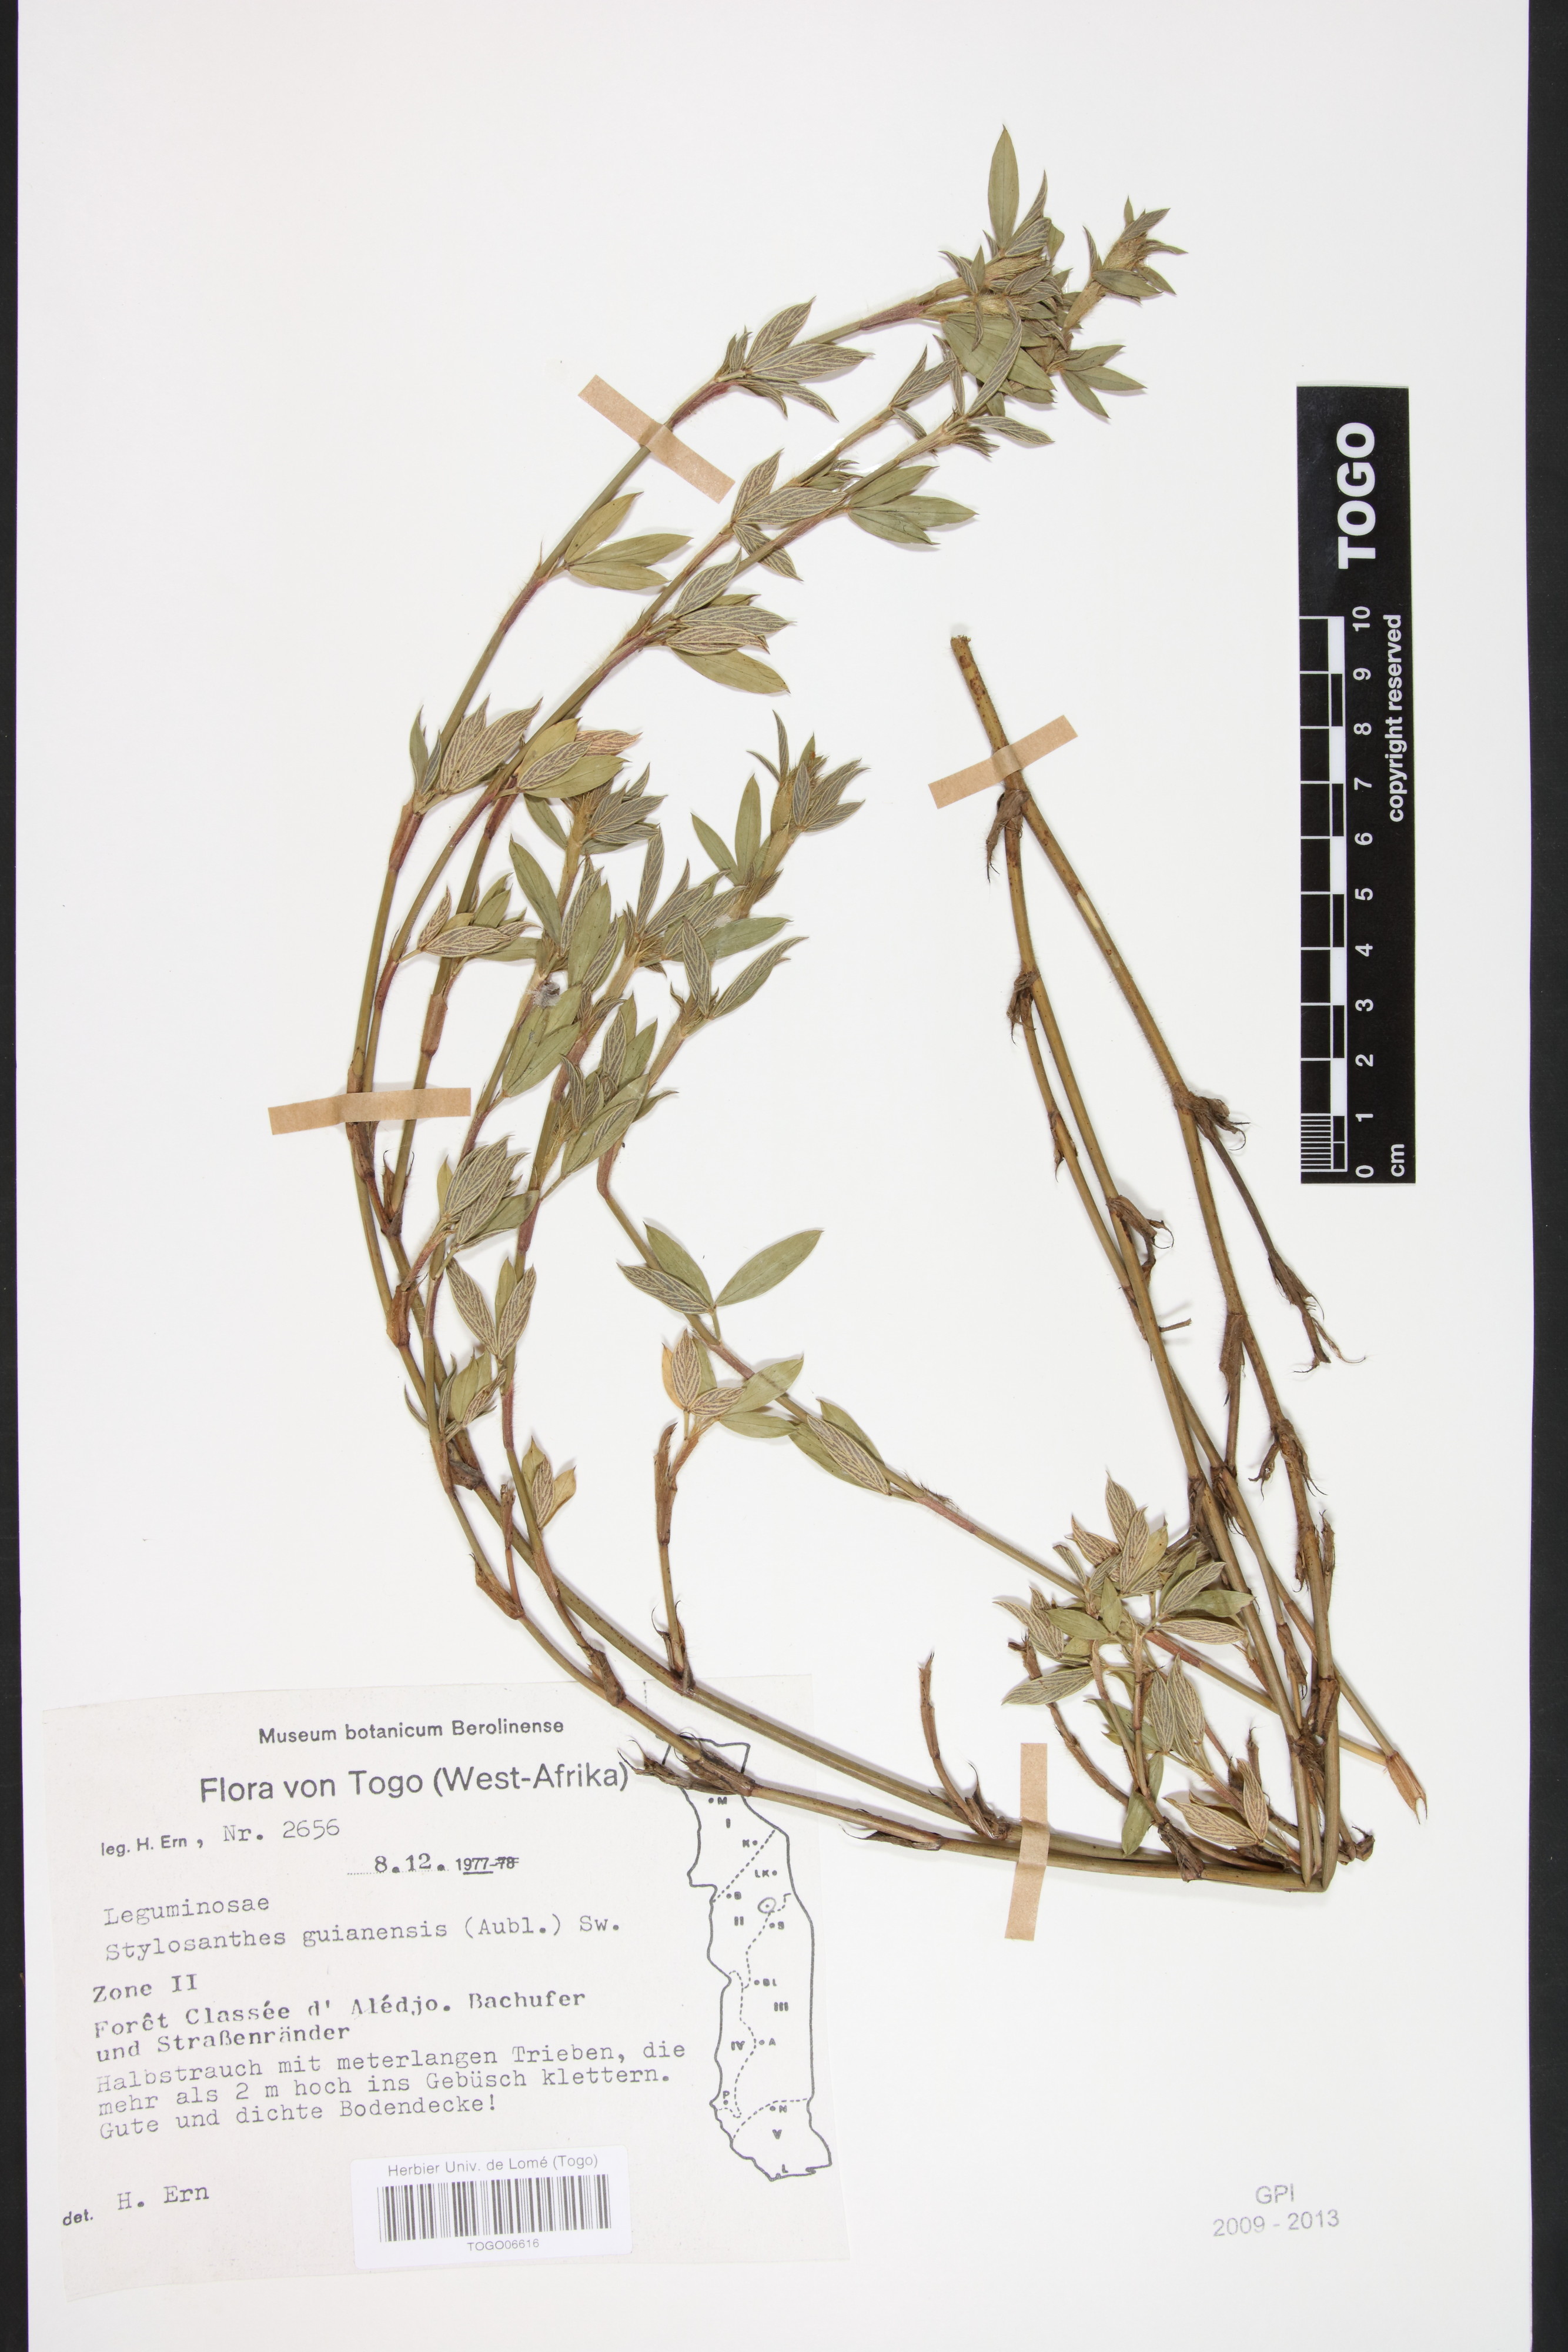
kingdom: Plantae
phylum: Tracheophyta
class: Magnoliopsida
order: Fabales
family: Fabaceae
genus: Stylosanthes
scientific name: Stylosanthes guianensis
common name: Pencil flower
